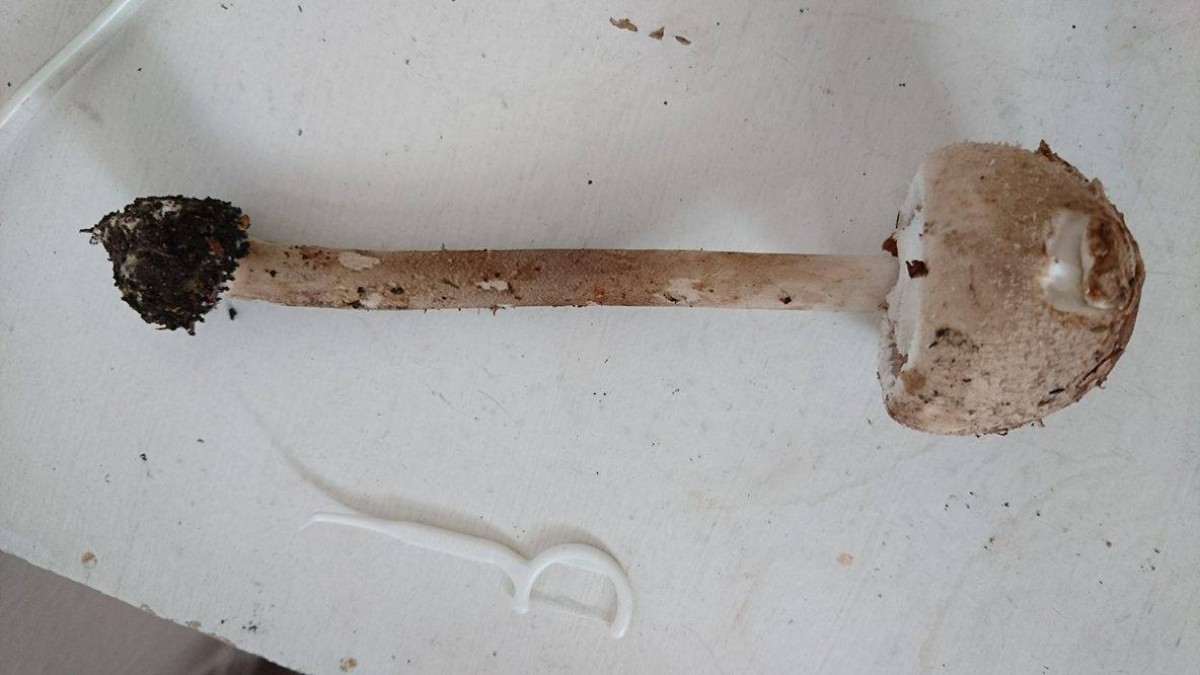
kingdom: Fungi
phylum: Basidiomycota
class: Agaricomycetes
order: Agaricales
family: Agaricaceae
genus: Macrolepiota
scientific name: Macrolepiota
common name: kæmpeparasolhat
